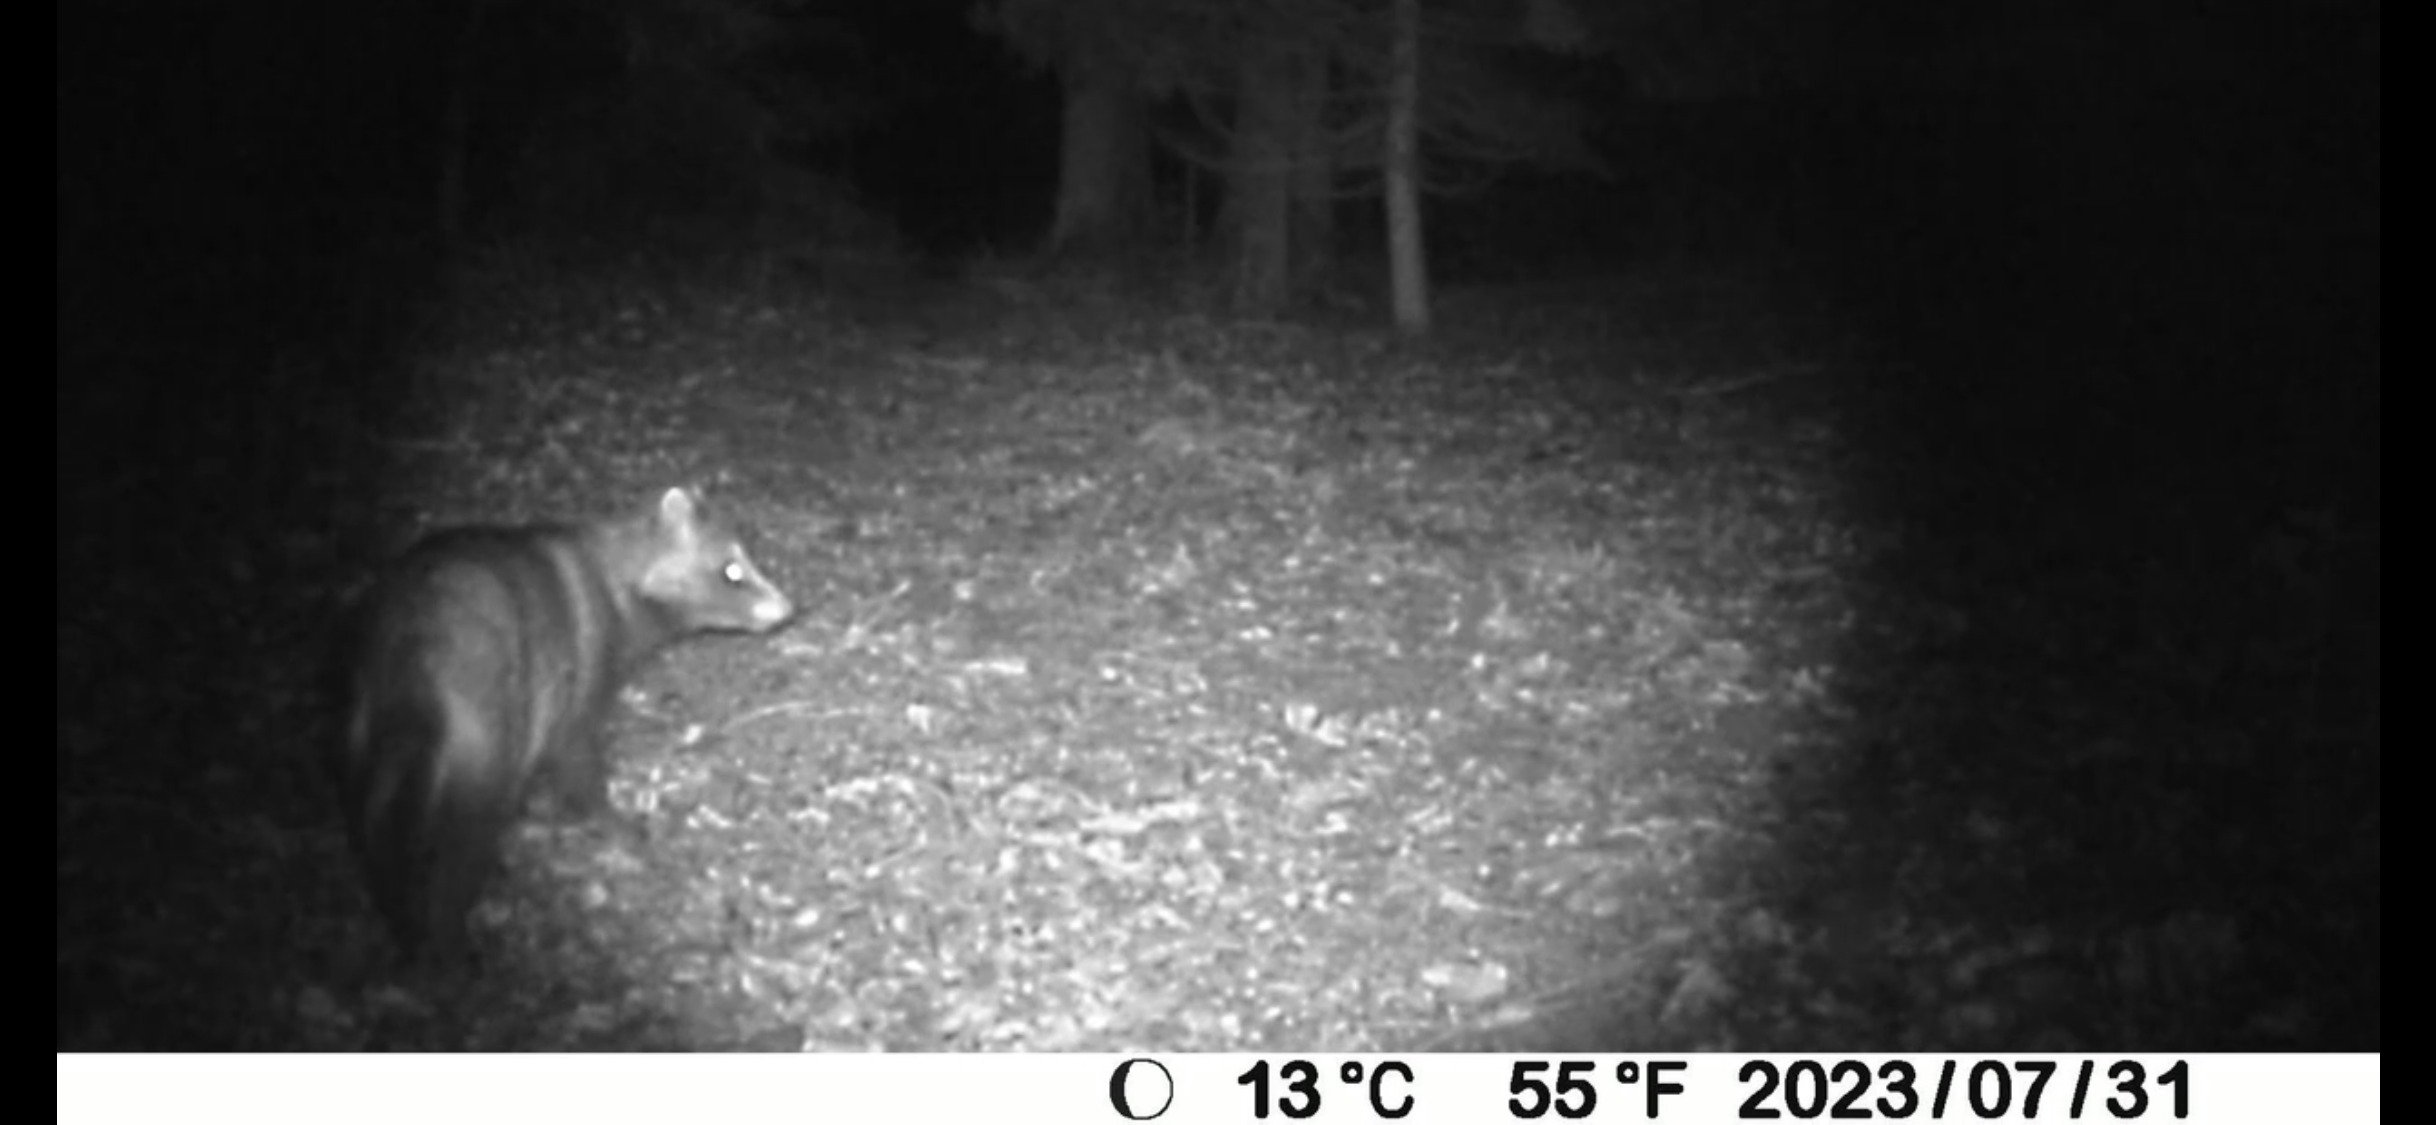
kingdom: Animalia
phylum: Chordata
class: Mammalia
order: Carnivora
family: Canidae
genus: Nyctereutes
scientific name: Nyctereutes procyonoides
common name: Mårhund
